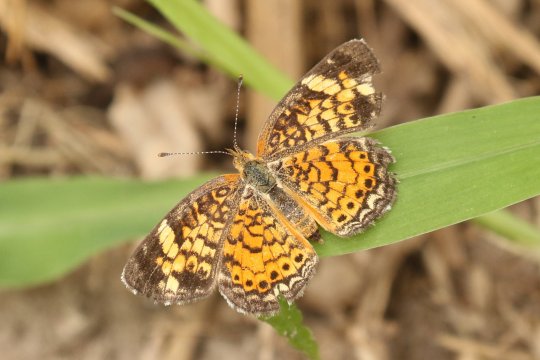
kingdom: Animalia
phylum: Arthropoda
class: Insecta
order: Lepidoptera
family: Nymphalidae
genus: Phyciodes
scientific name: Phyciodes tharos
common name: Pearl Crescent
